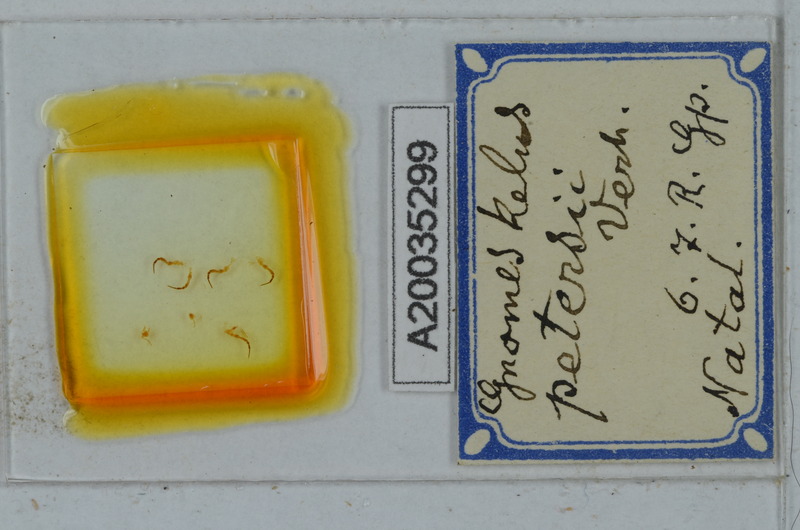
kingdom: Animalia
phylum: Arthropoda
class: Diplopoda
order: Julida
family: Blaniulidae
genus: Blaniulus
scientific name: Blaniulus guttulatus
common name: Spotted snake millipede
